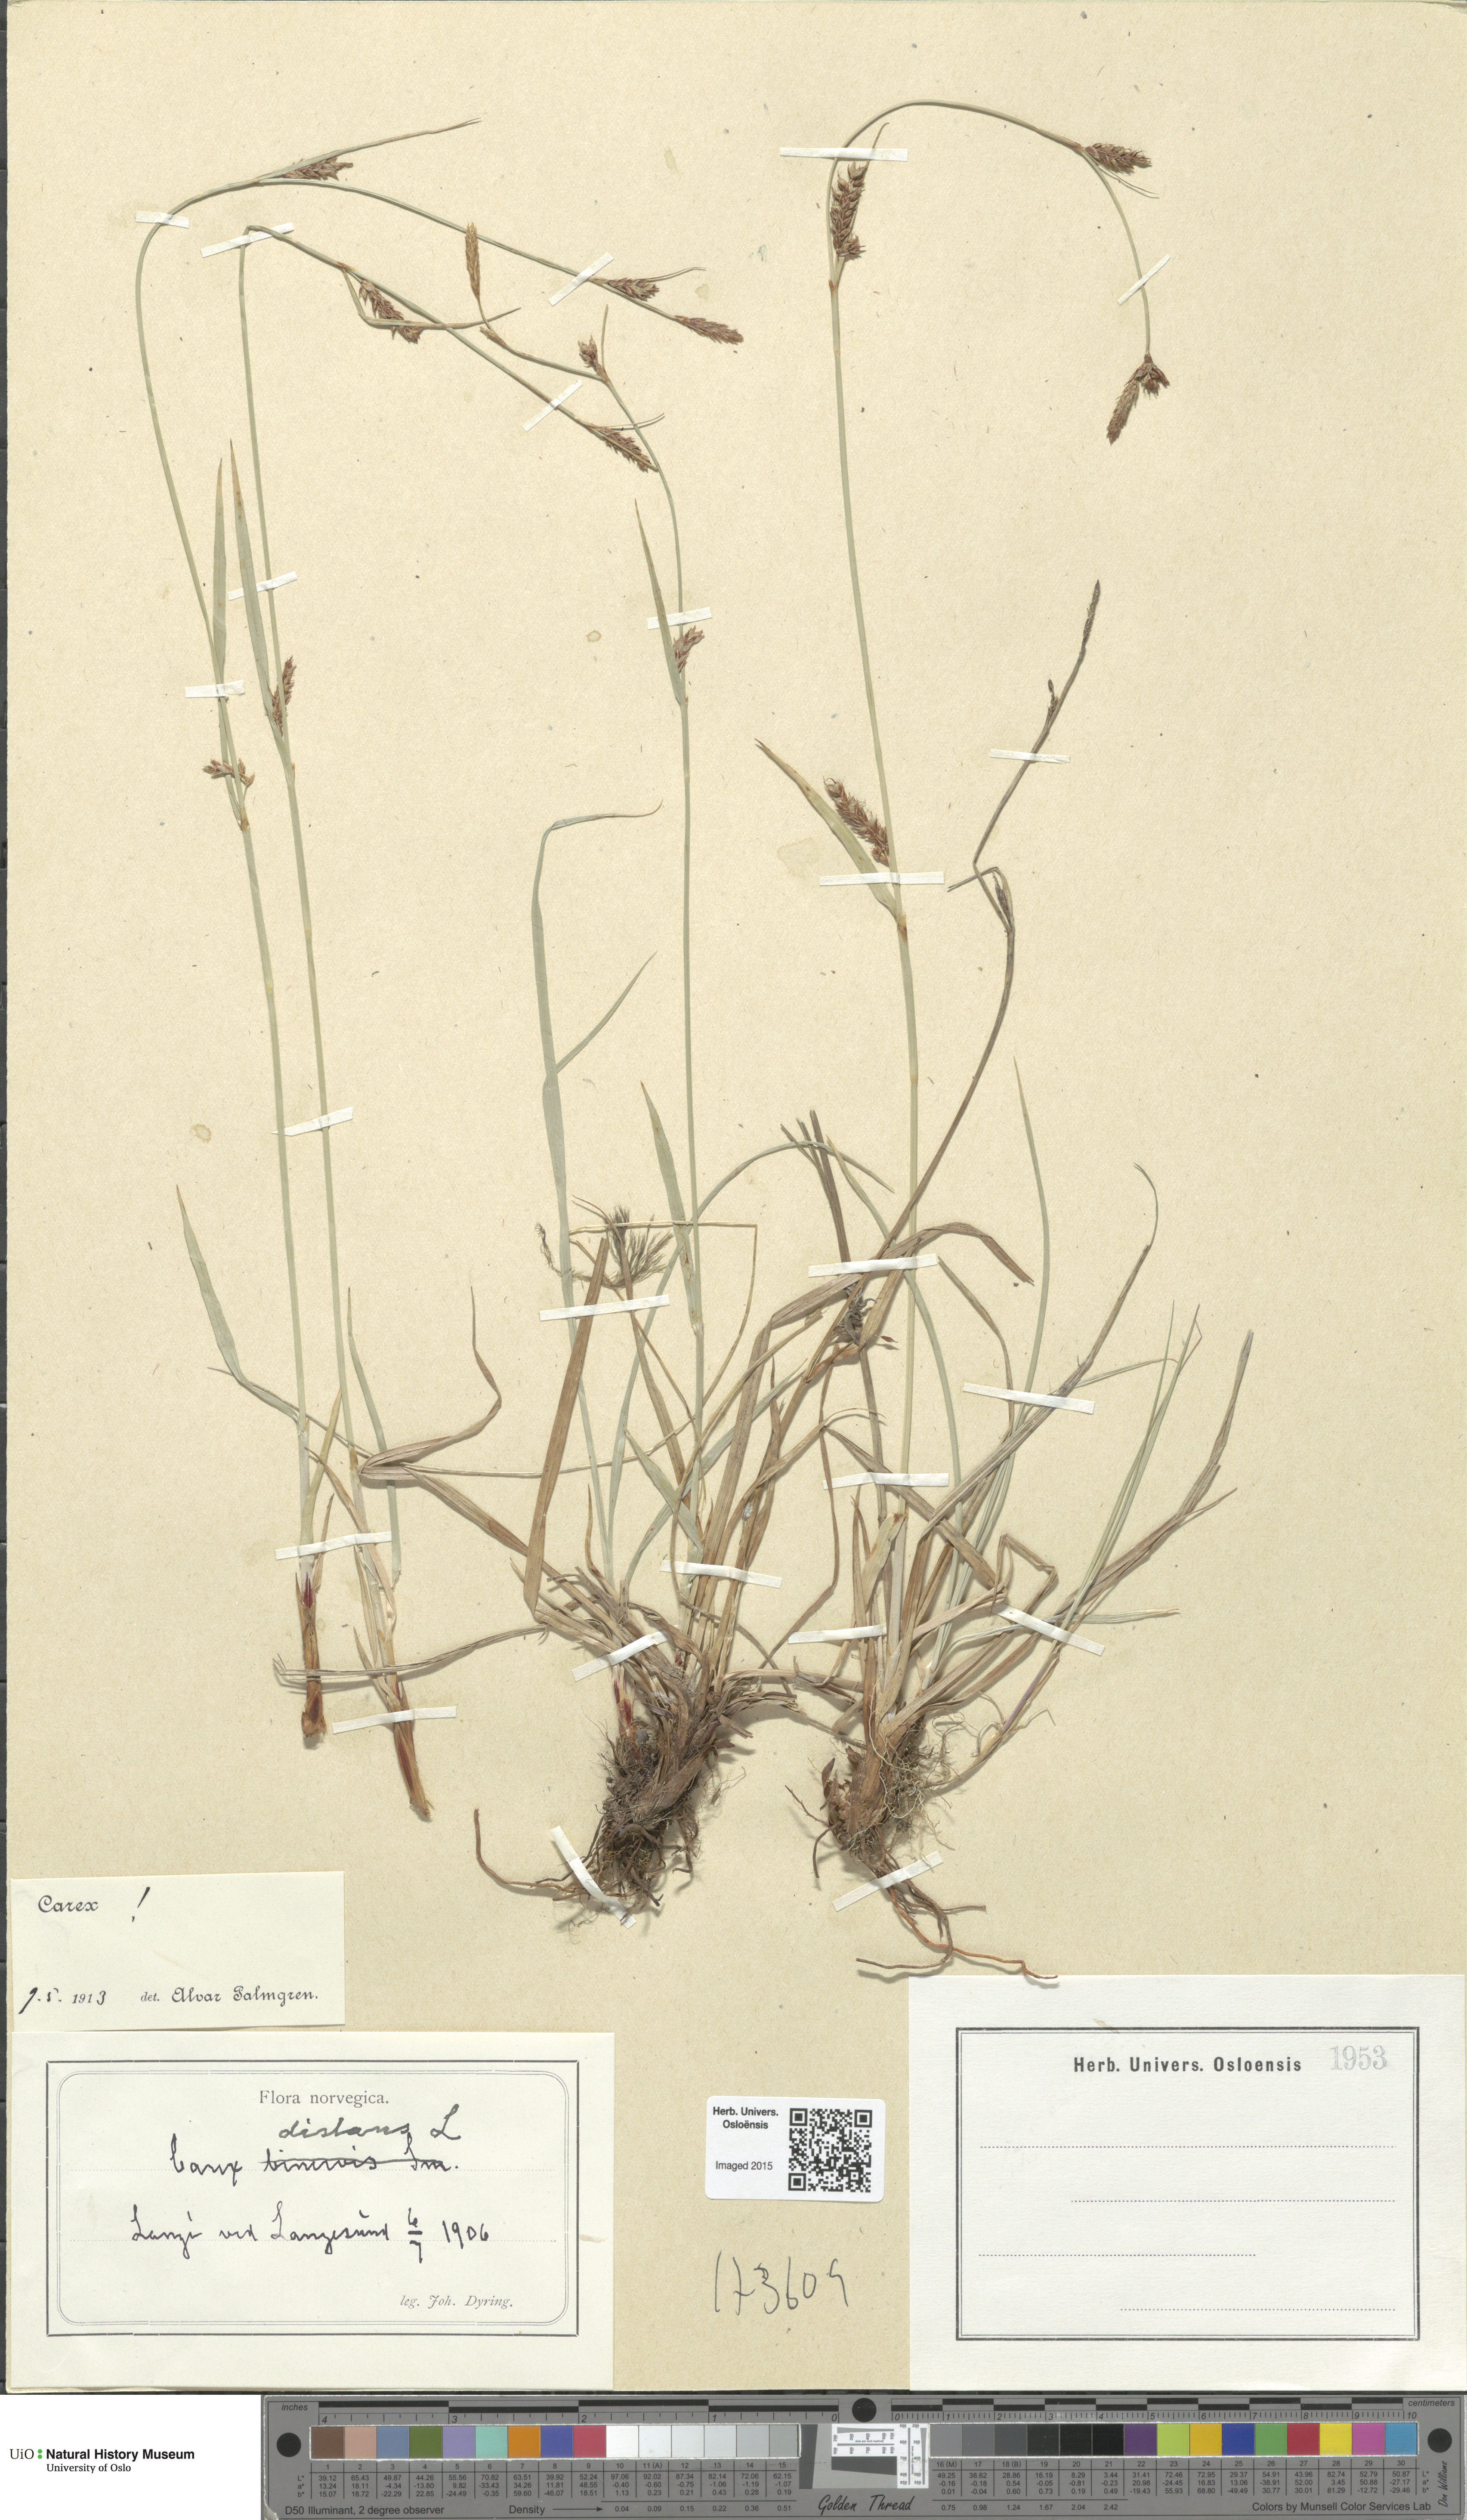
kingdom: Plantae
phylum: Tracheophyta
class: Liliopsida
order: Poales
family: Cyperaceae
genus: Carex
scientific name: Carex distans
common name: Distant sedge
